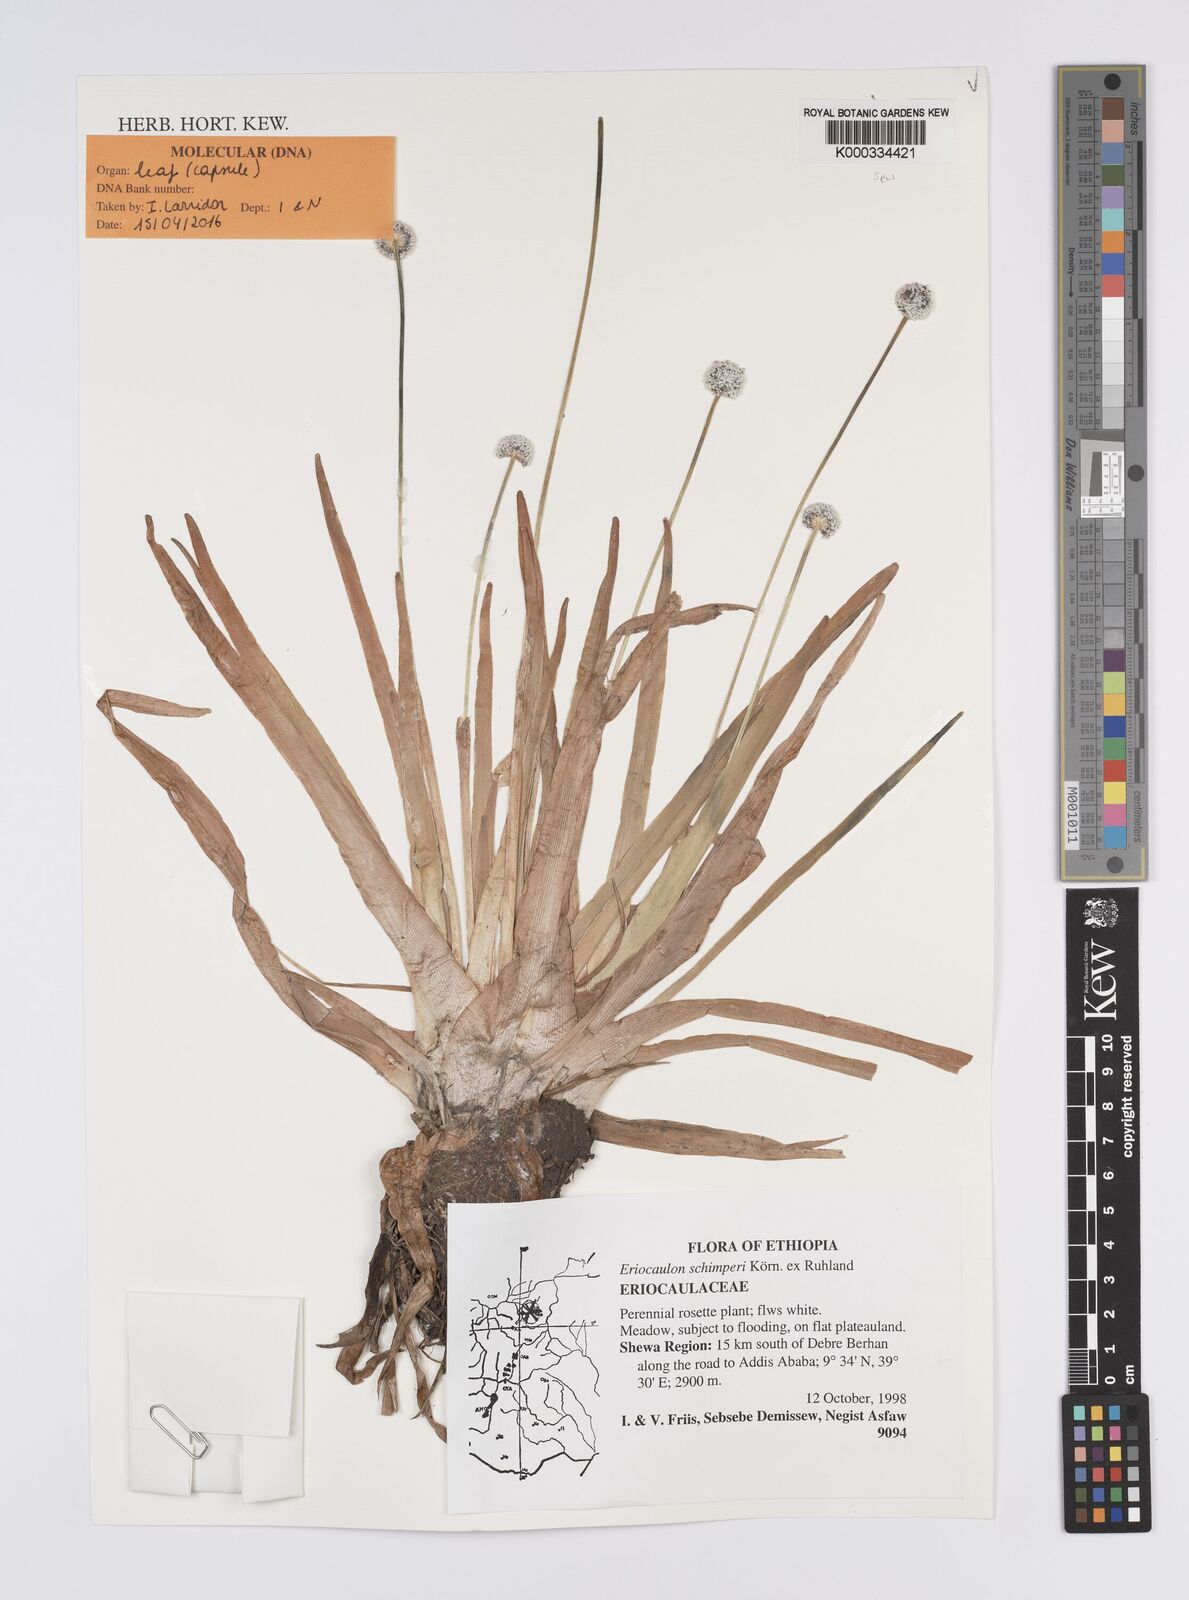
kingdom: Plantae
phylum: Tracheophyta
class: Liliopsida
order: Poales
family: Eriocaulaceae
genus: Eriocaulon
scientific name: Eriocaulon
